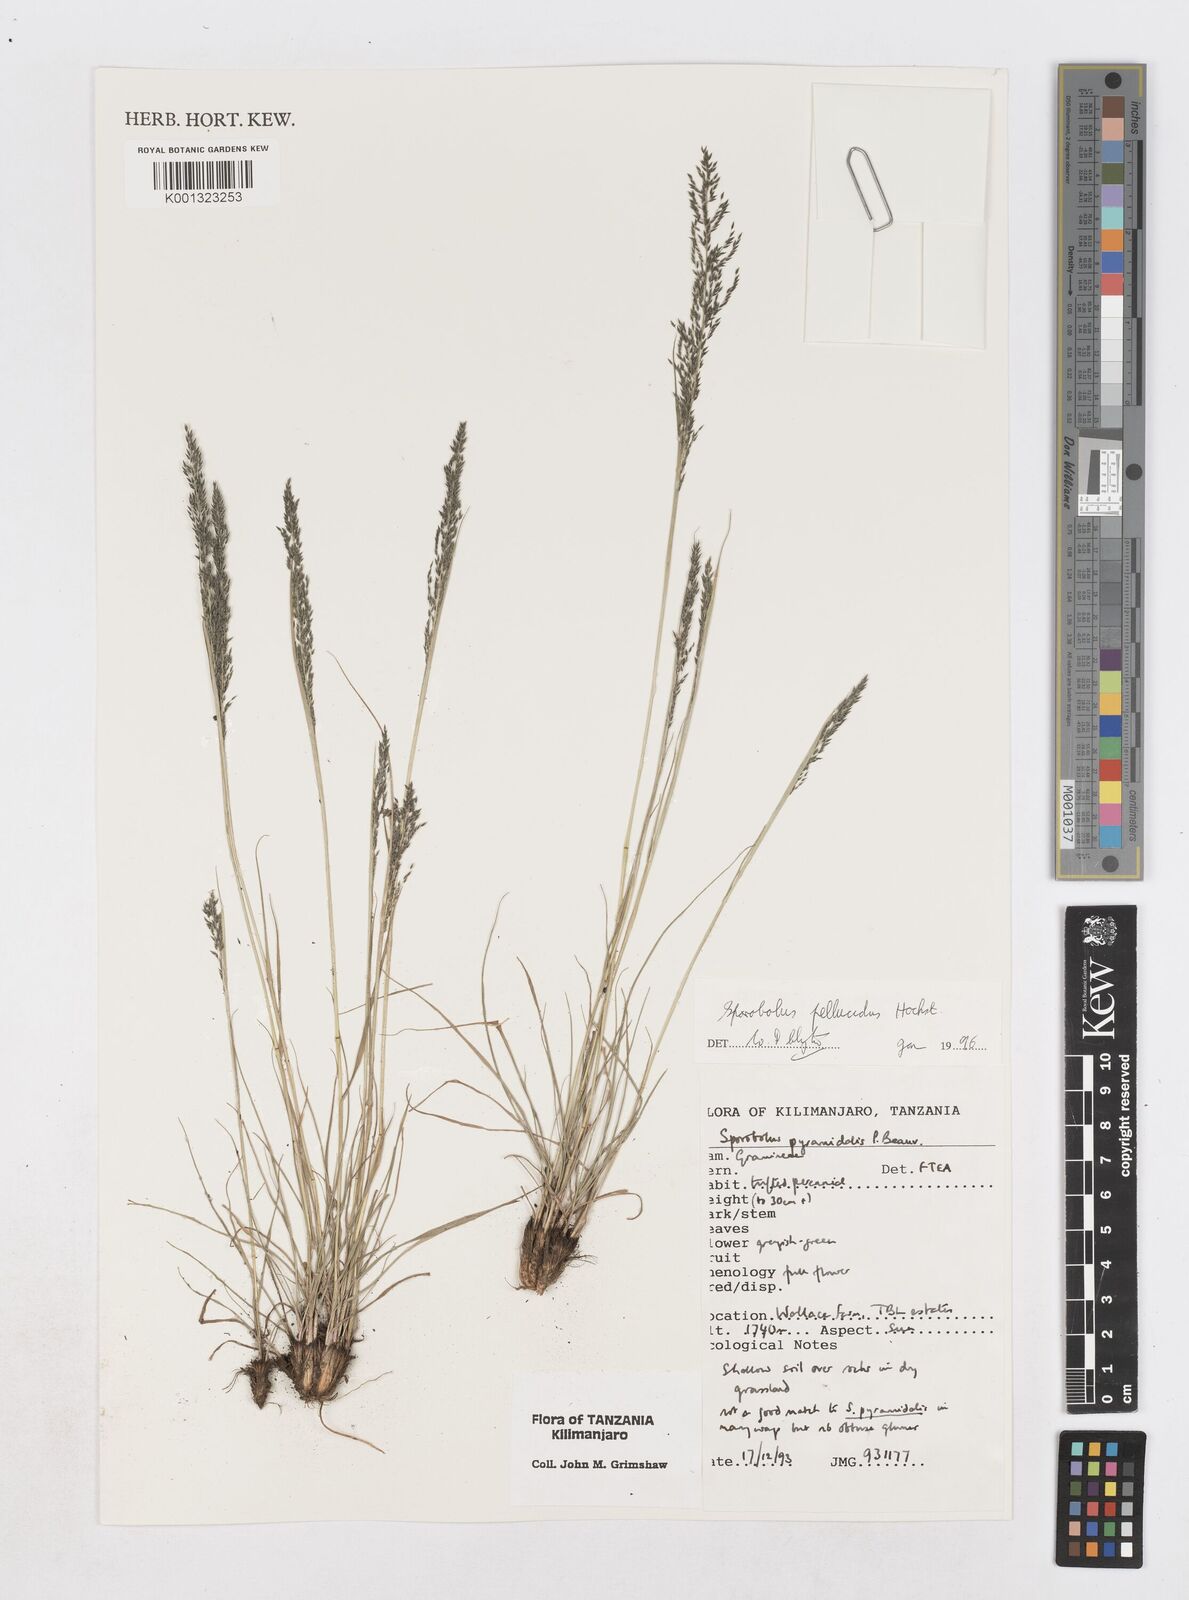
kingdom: Plantae
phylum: Tracheophyta
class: Liliopsida
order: Poales
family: Poaceae
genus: Sporobolus
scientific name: Sporobolus pellucidus
